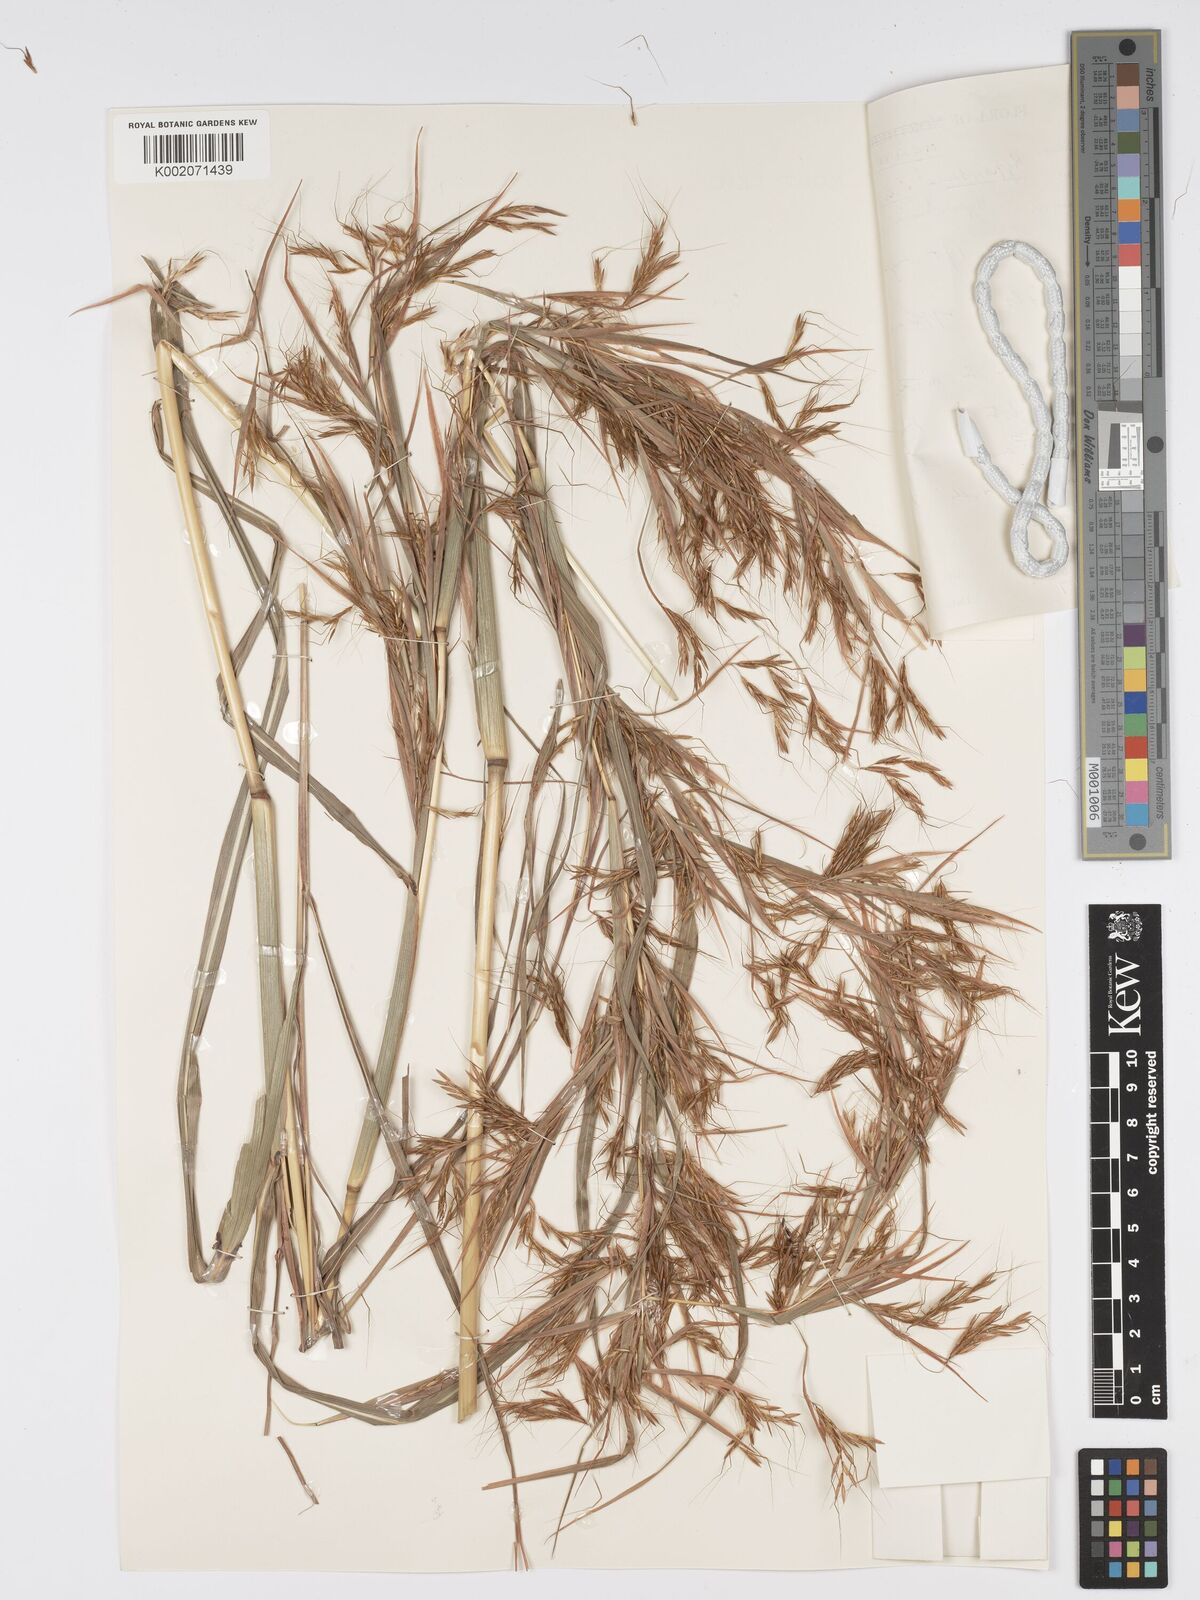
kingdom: Plantae
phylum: Tracheophyta
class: Liliopsida
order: Poales
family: Poaceae
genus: Hyparrhenia
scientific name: Hyparrhenia rufa
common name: Jaraguagrass
